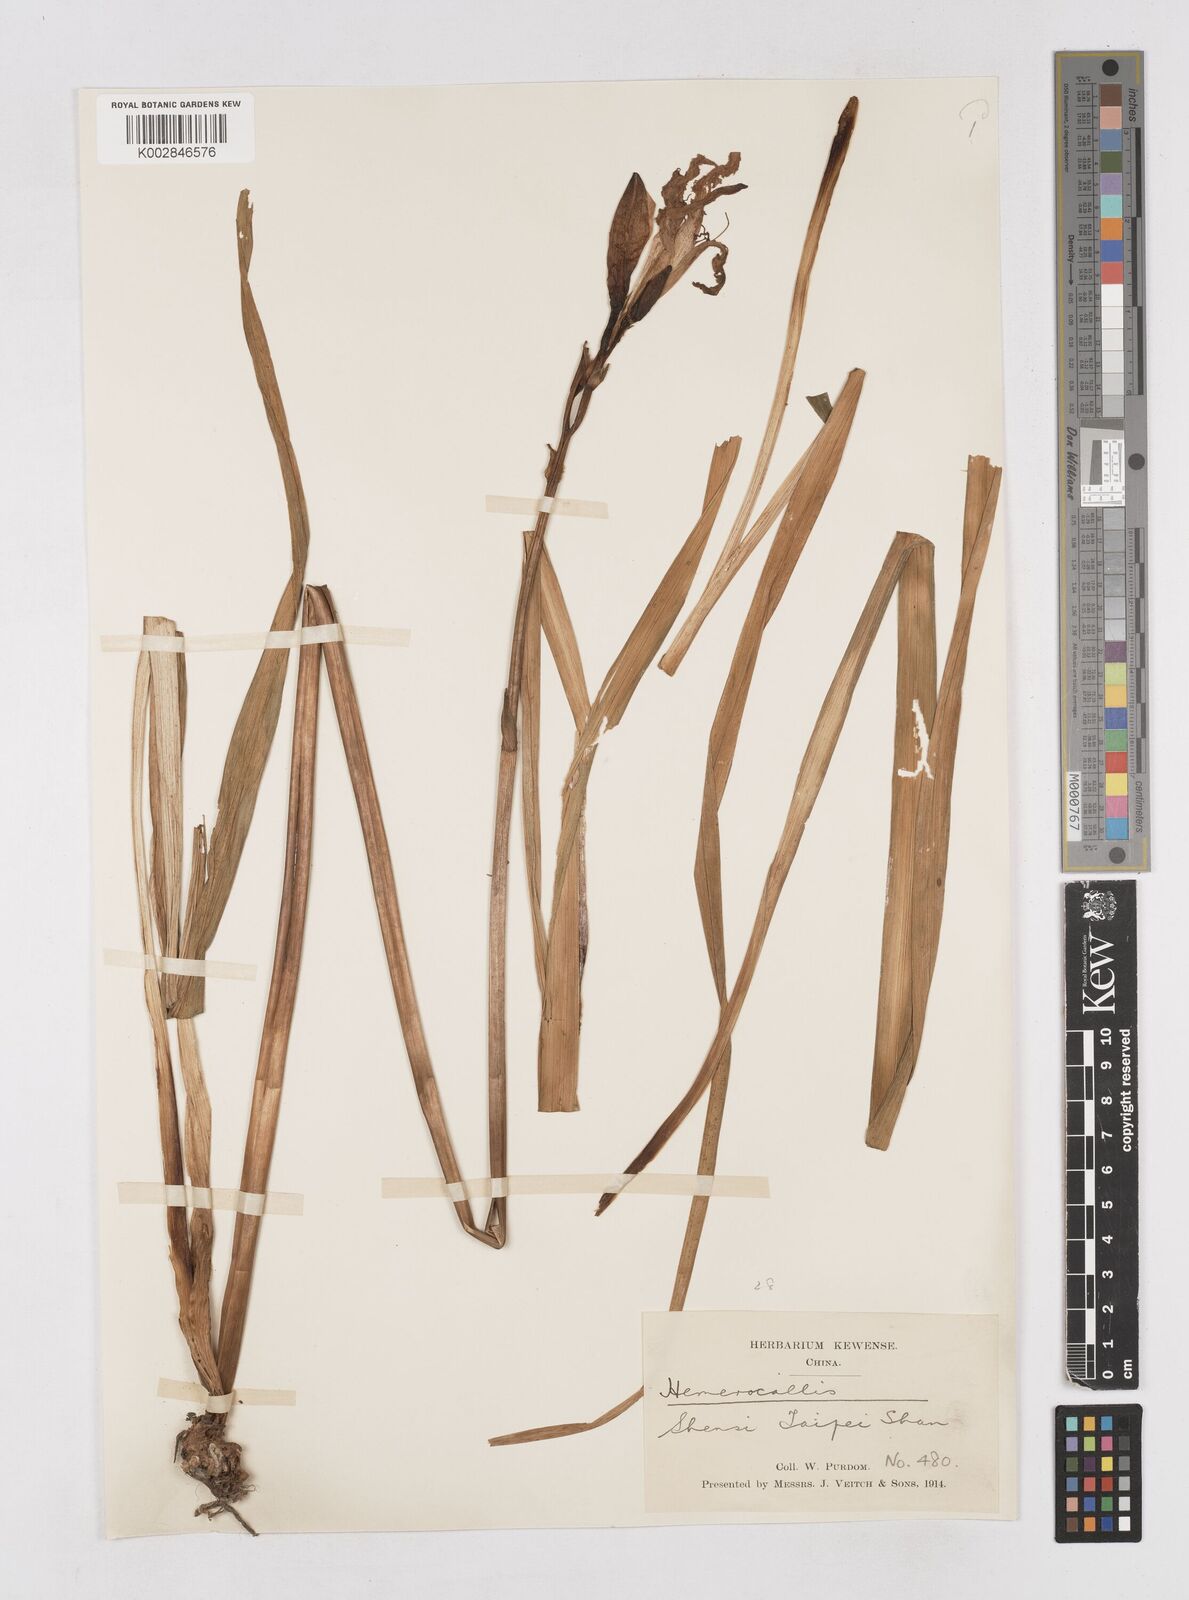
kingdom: Plantae
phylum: Tracheophyta
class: Liliopsida
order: Asparagales
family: Asphodelaceae
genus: Hemerocallis
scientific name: Hemerocallis
